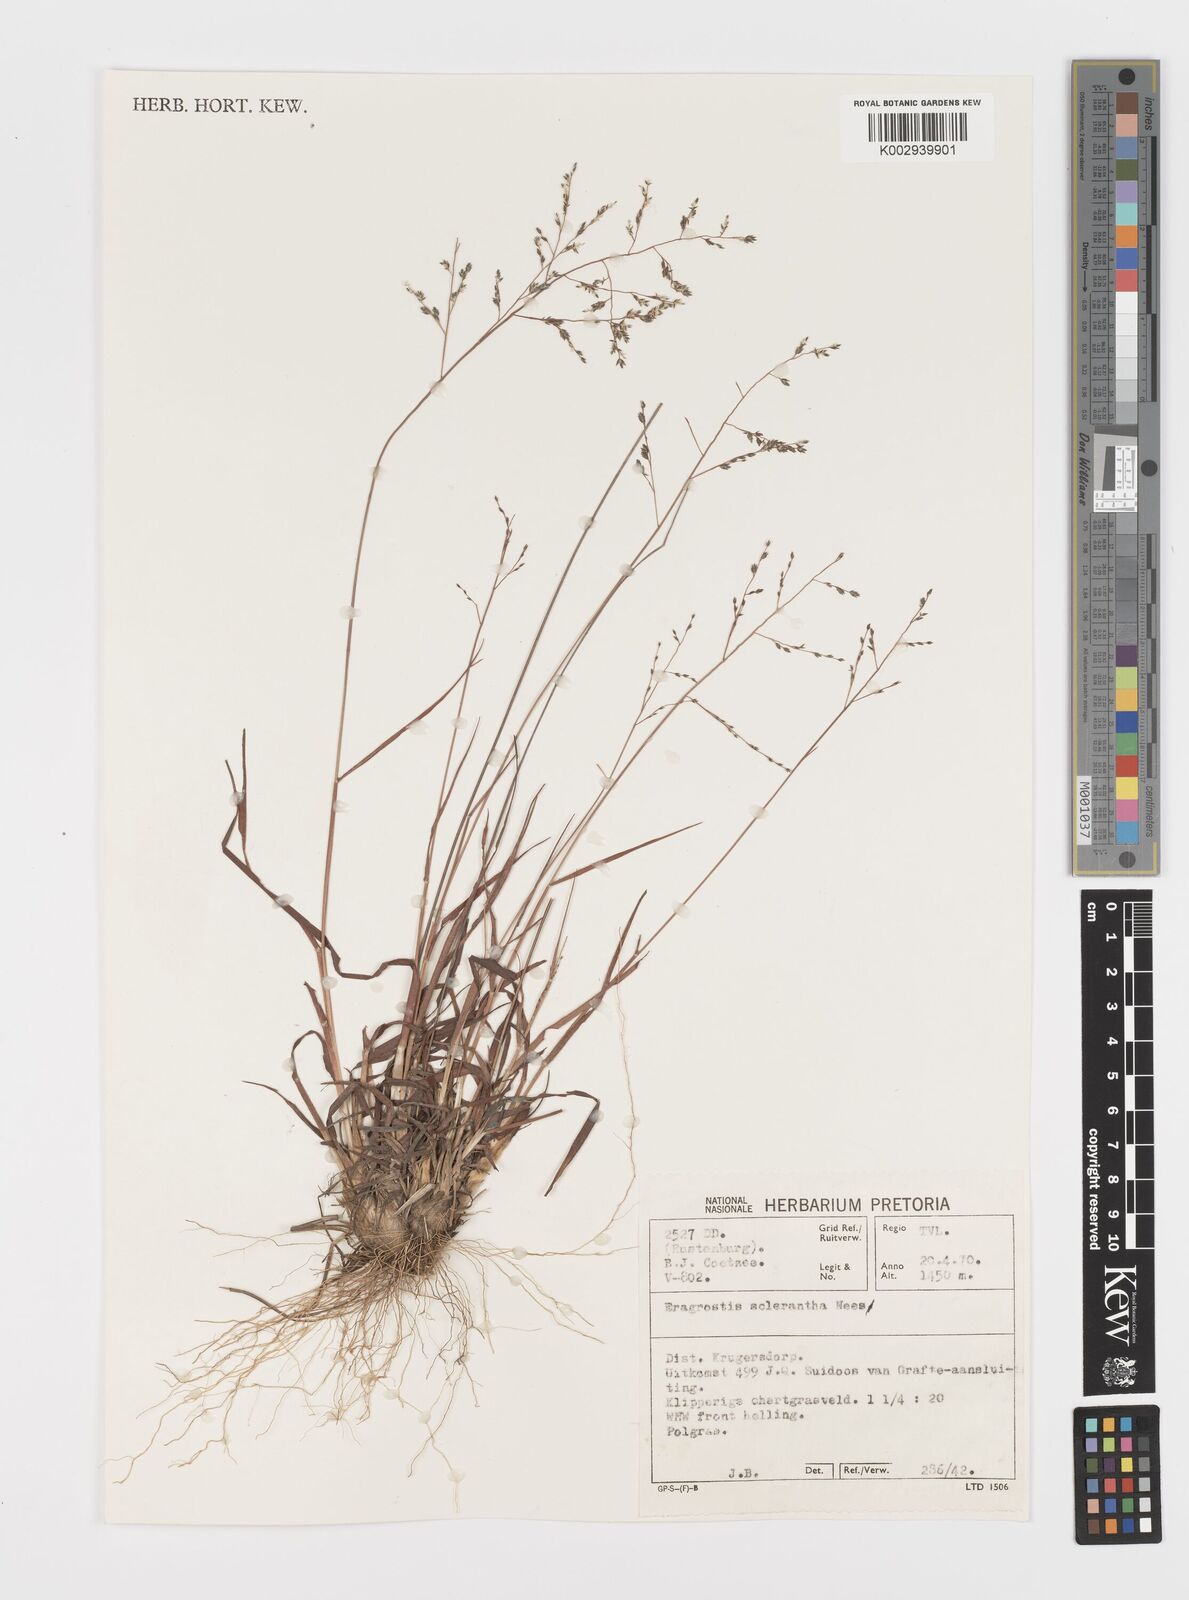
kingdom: Plantae
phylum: Tracheophyta
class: Liliopsida
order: Poales
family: Poaceae
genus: Eragrostis
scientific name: Eragrostis sclerantha
